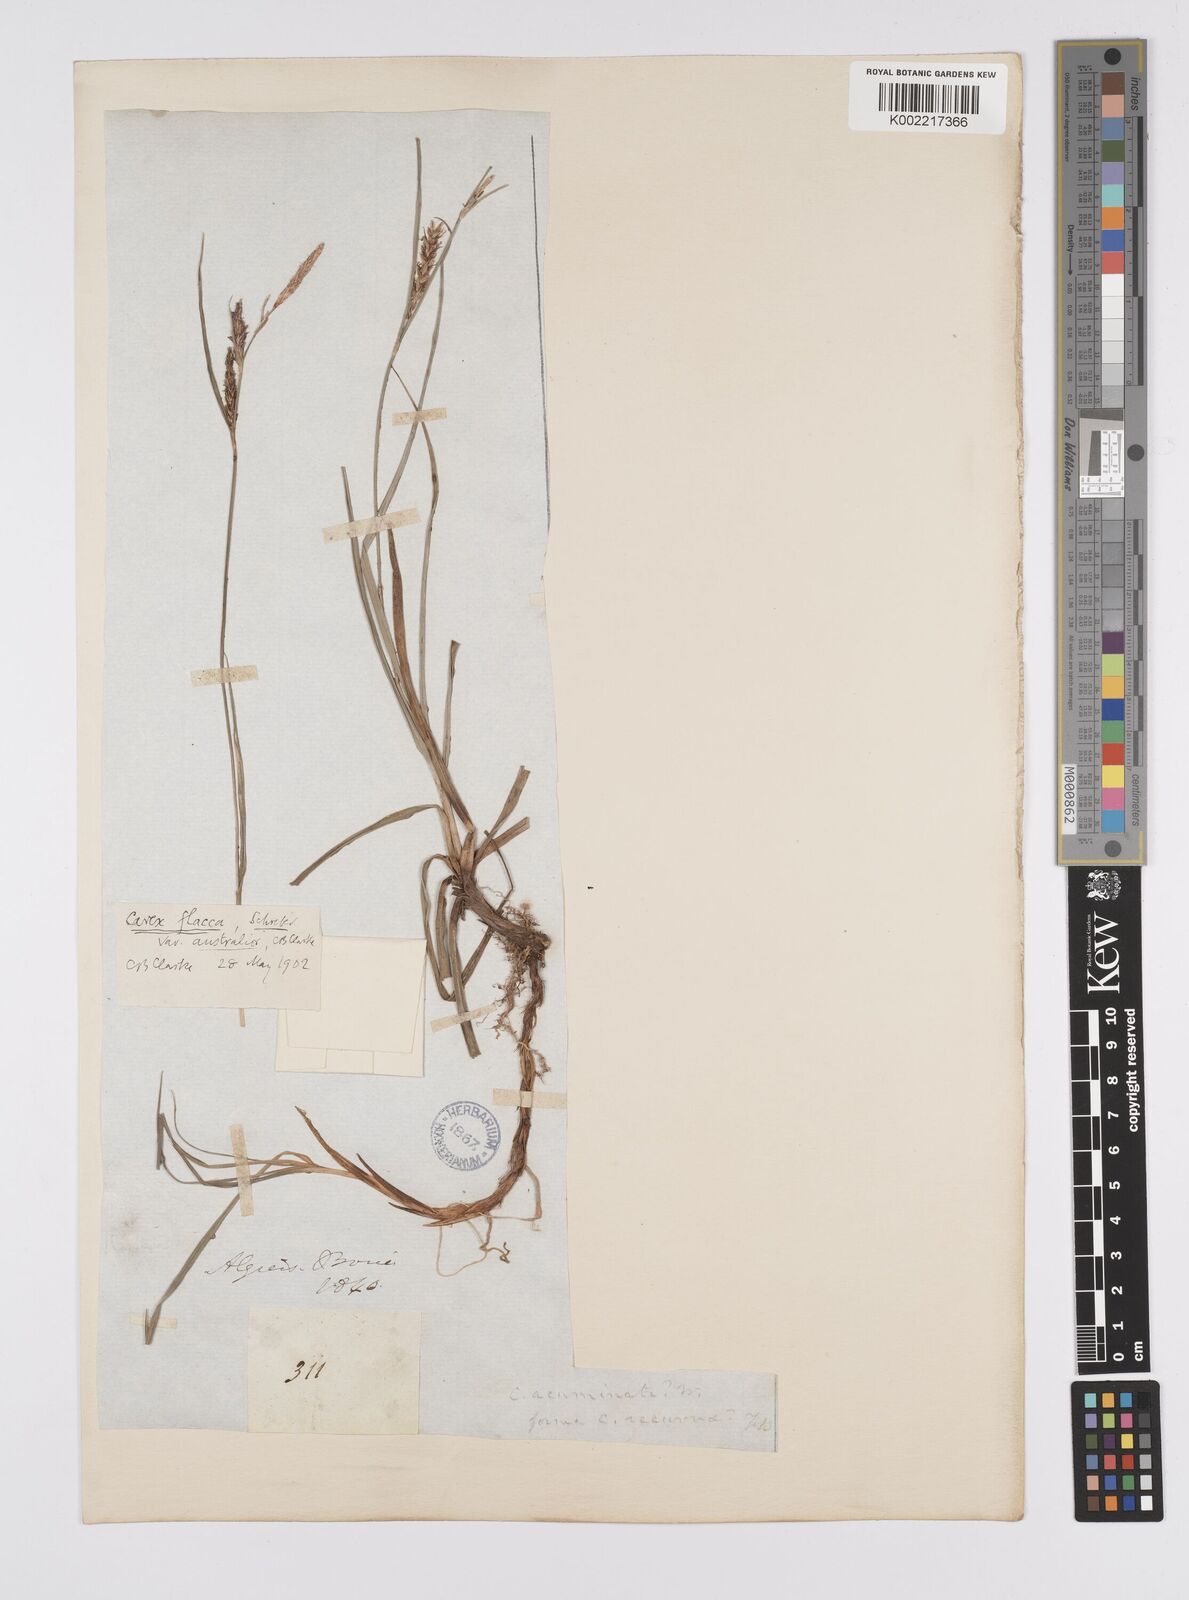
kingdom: Plantae
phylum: Tracheophyta
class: Liliopsida
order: Poales
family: Cyperaceae
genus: Carex
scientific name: Carex flacca
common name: Glaucous sedge
